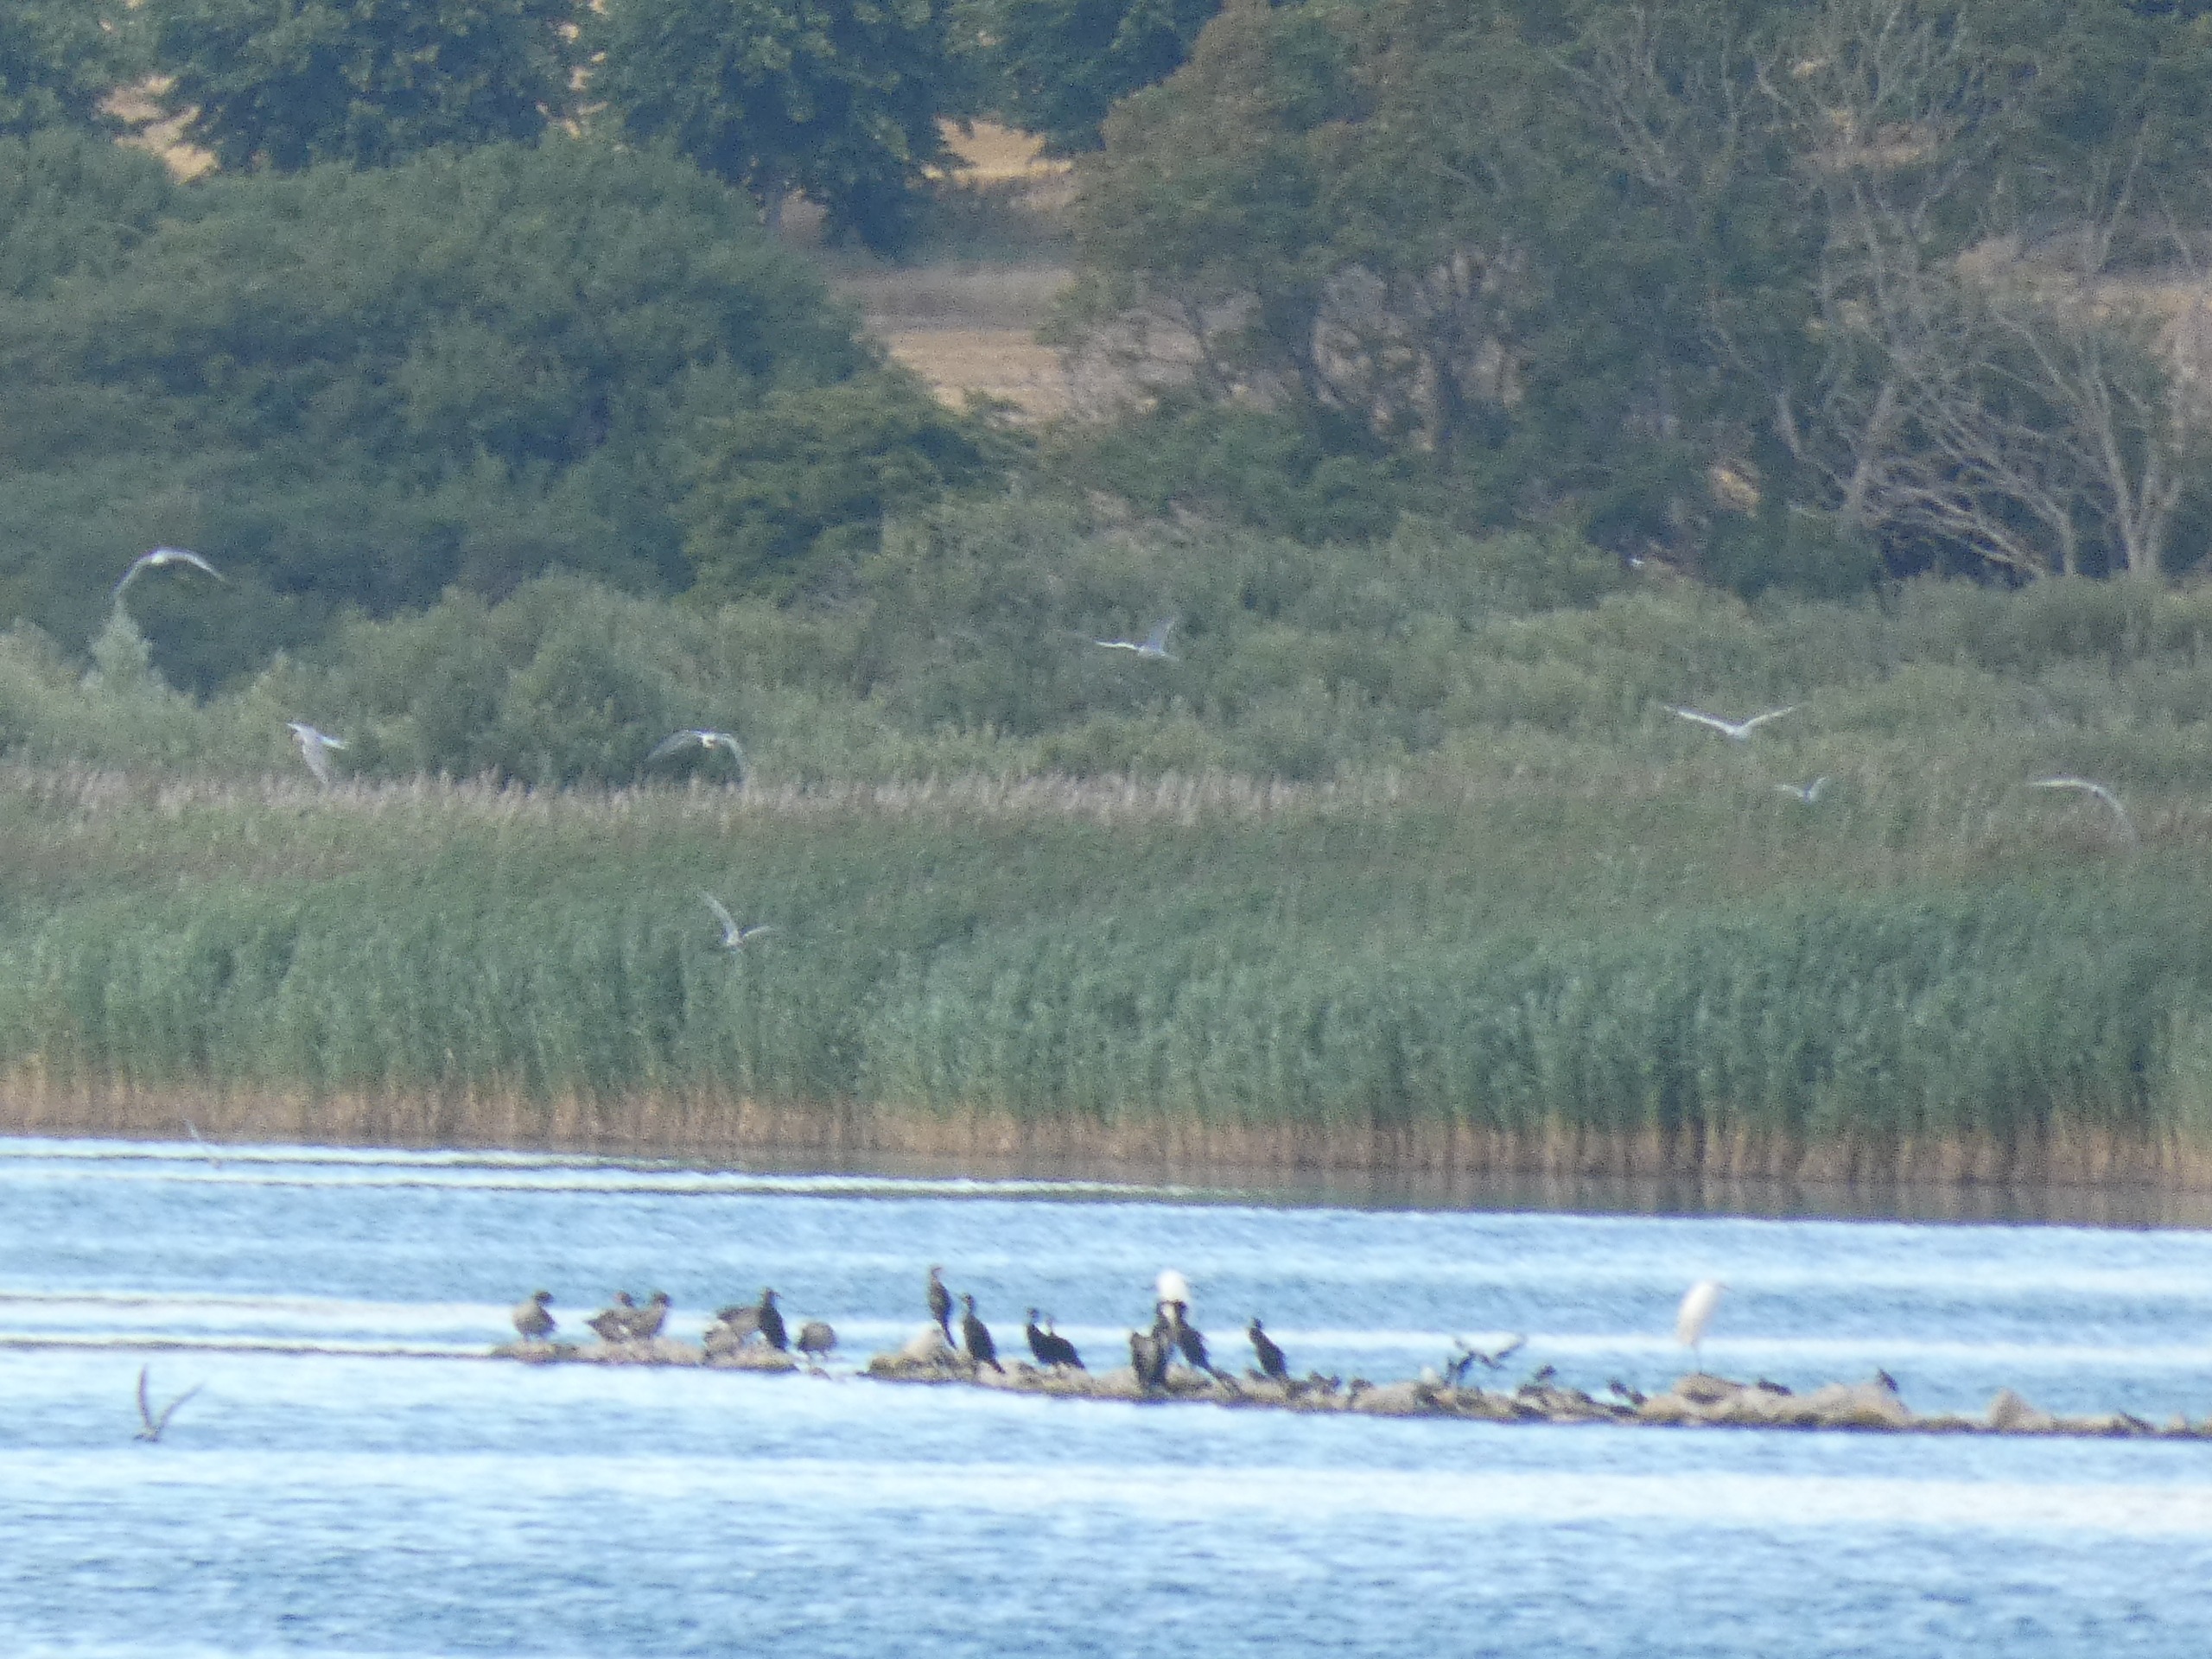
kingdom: Animalia
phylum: Chordata
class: Aves
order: Suliformes
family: Phalacrocoracidae
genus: Phalacrocorax
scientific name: Phalacrocorax carbo
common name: Skarv
